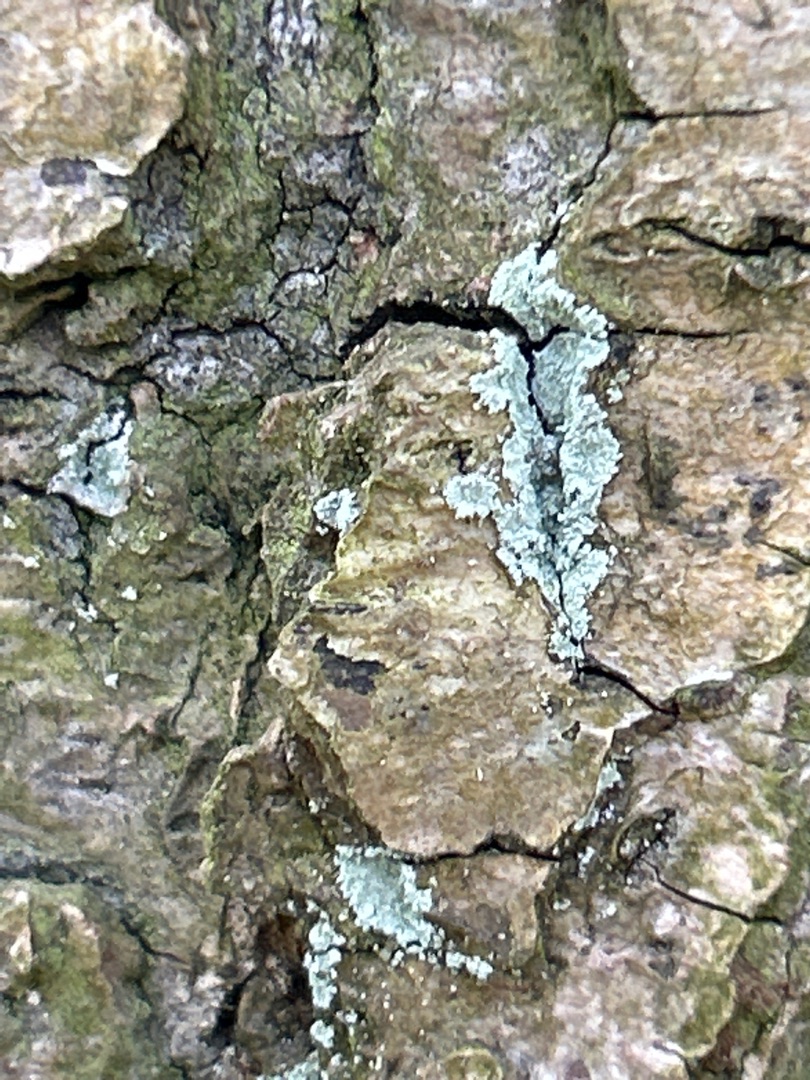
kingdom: Fungi
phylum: Ascomycota
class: Lecanoromycetes
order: Lecanorales
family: Stereocaulaceae
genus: Lepraria
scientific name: Lepraria
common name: Støvlav
